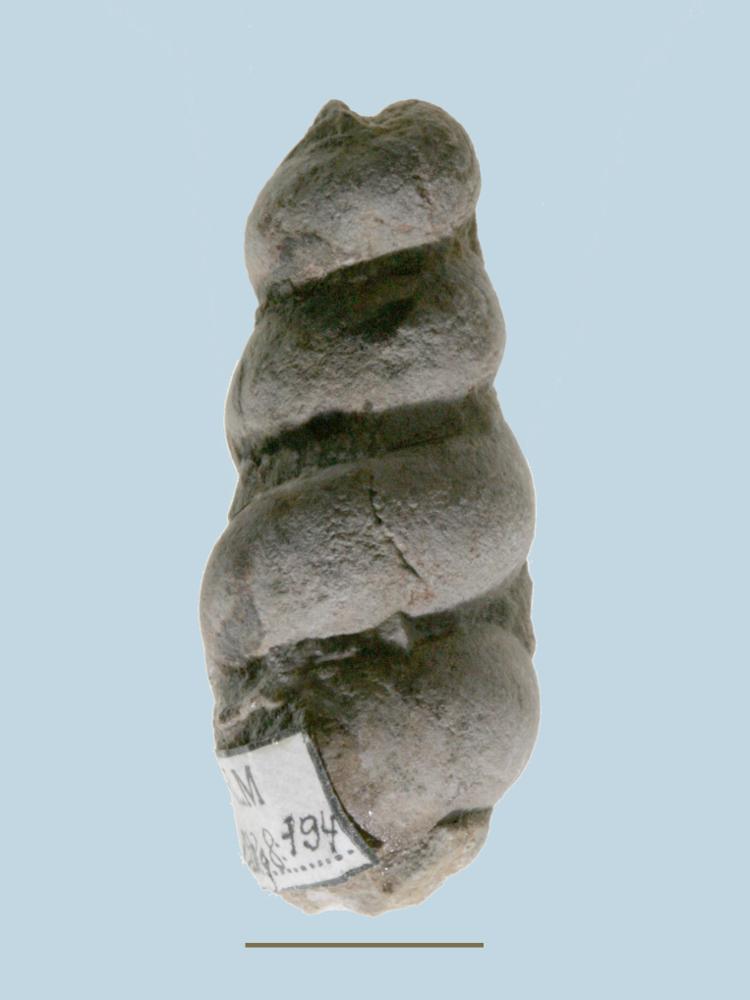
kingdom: Animalia
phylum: Mollusca
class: Gastropoda
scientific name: Gastropoda
